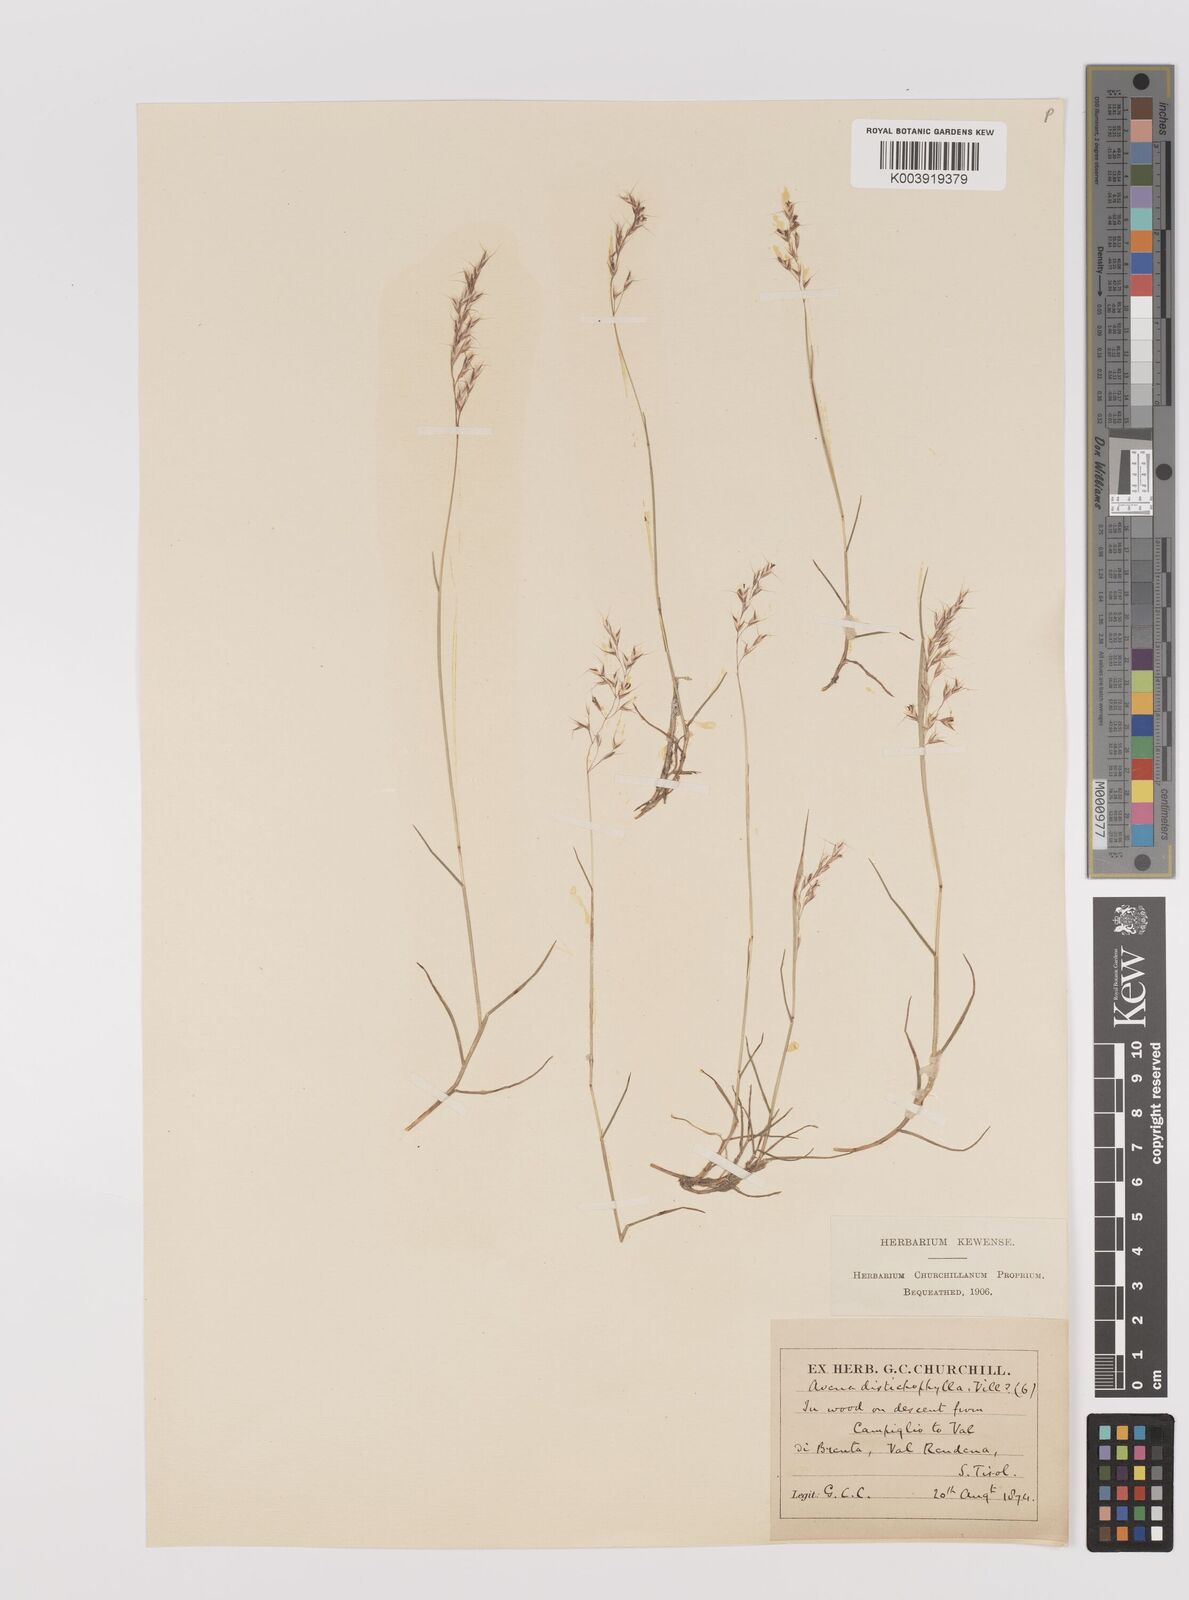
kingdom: Plantae
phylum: Tracheophyta
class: Liliopsida
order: Poales
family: Poaceae
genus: Acrospelion
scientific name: Acrospelion distichophyllum
